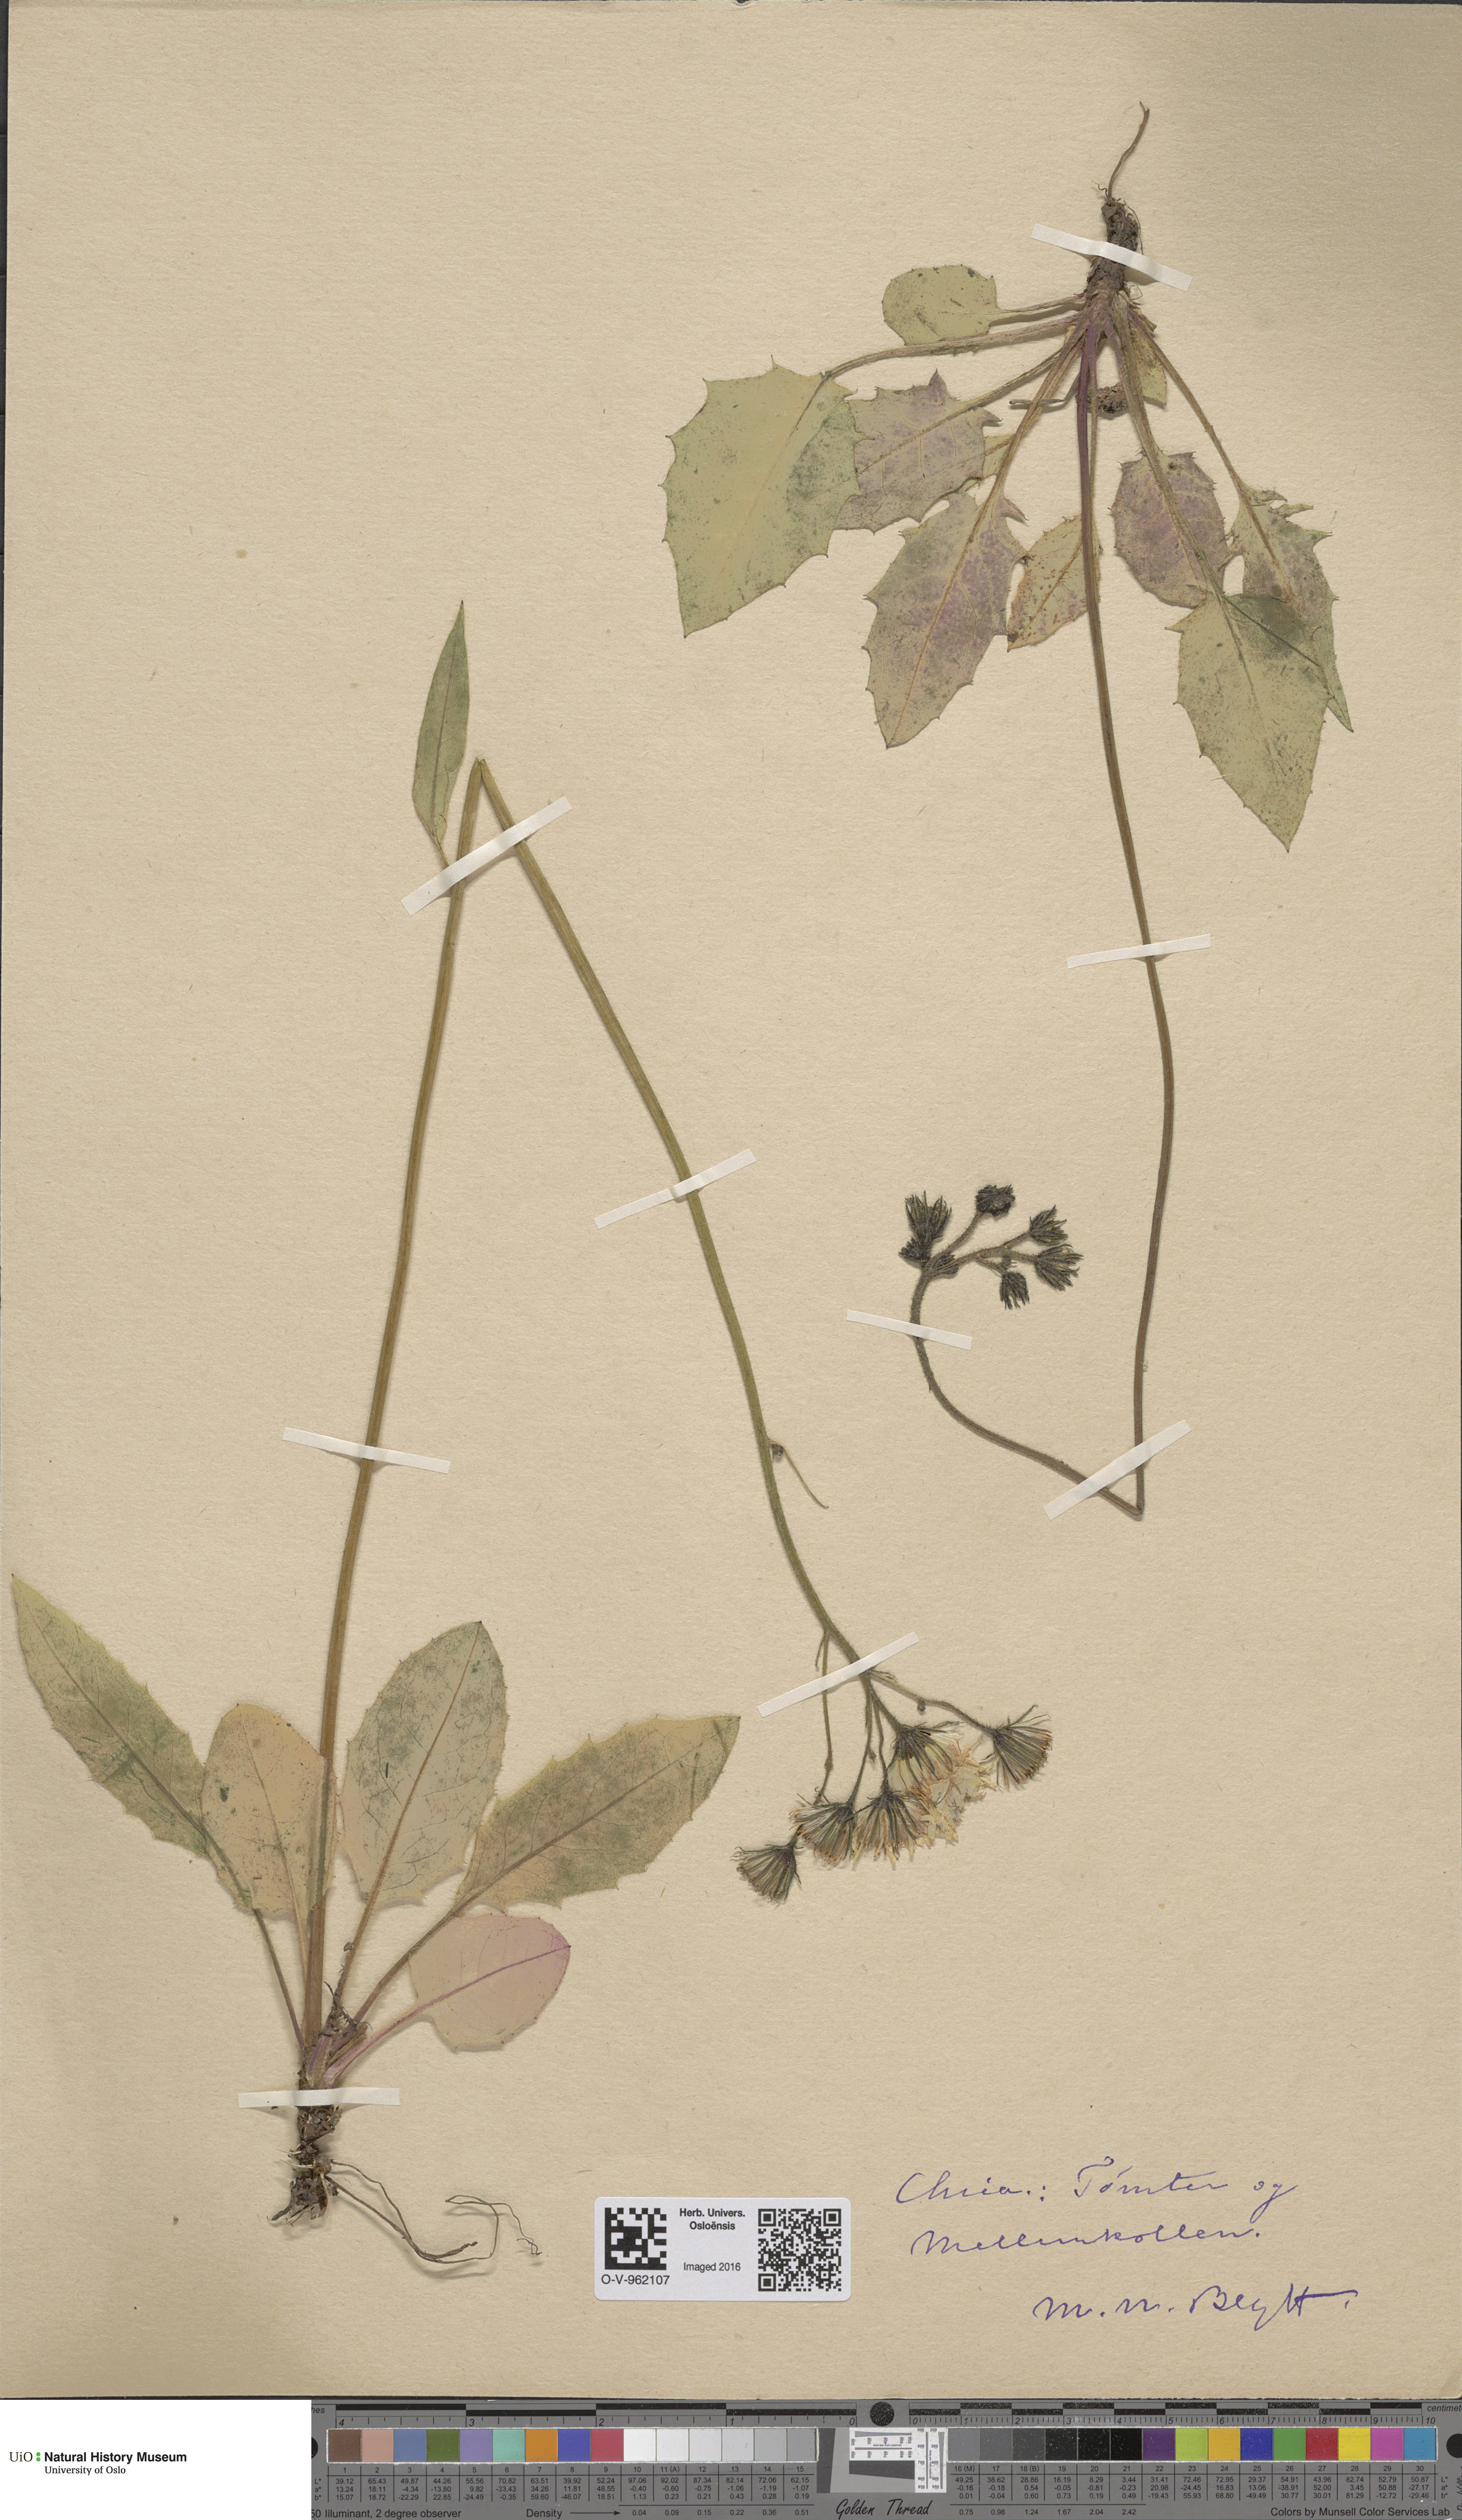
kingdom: Plantae
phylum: Tracheophyta
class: Magnoliopsida
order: Asterales
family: Asteraceae
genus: Hieracium
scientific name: Hieracium
